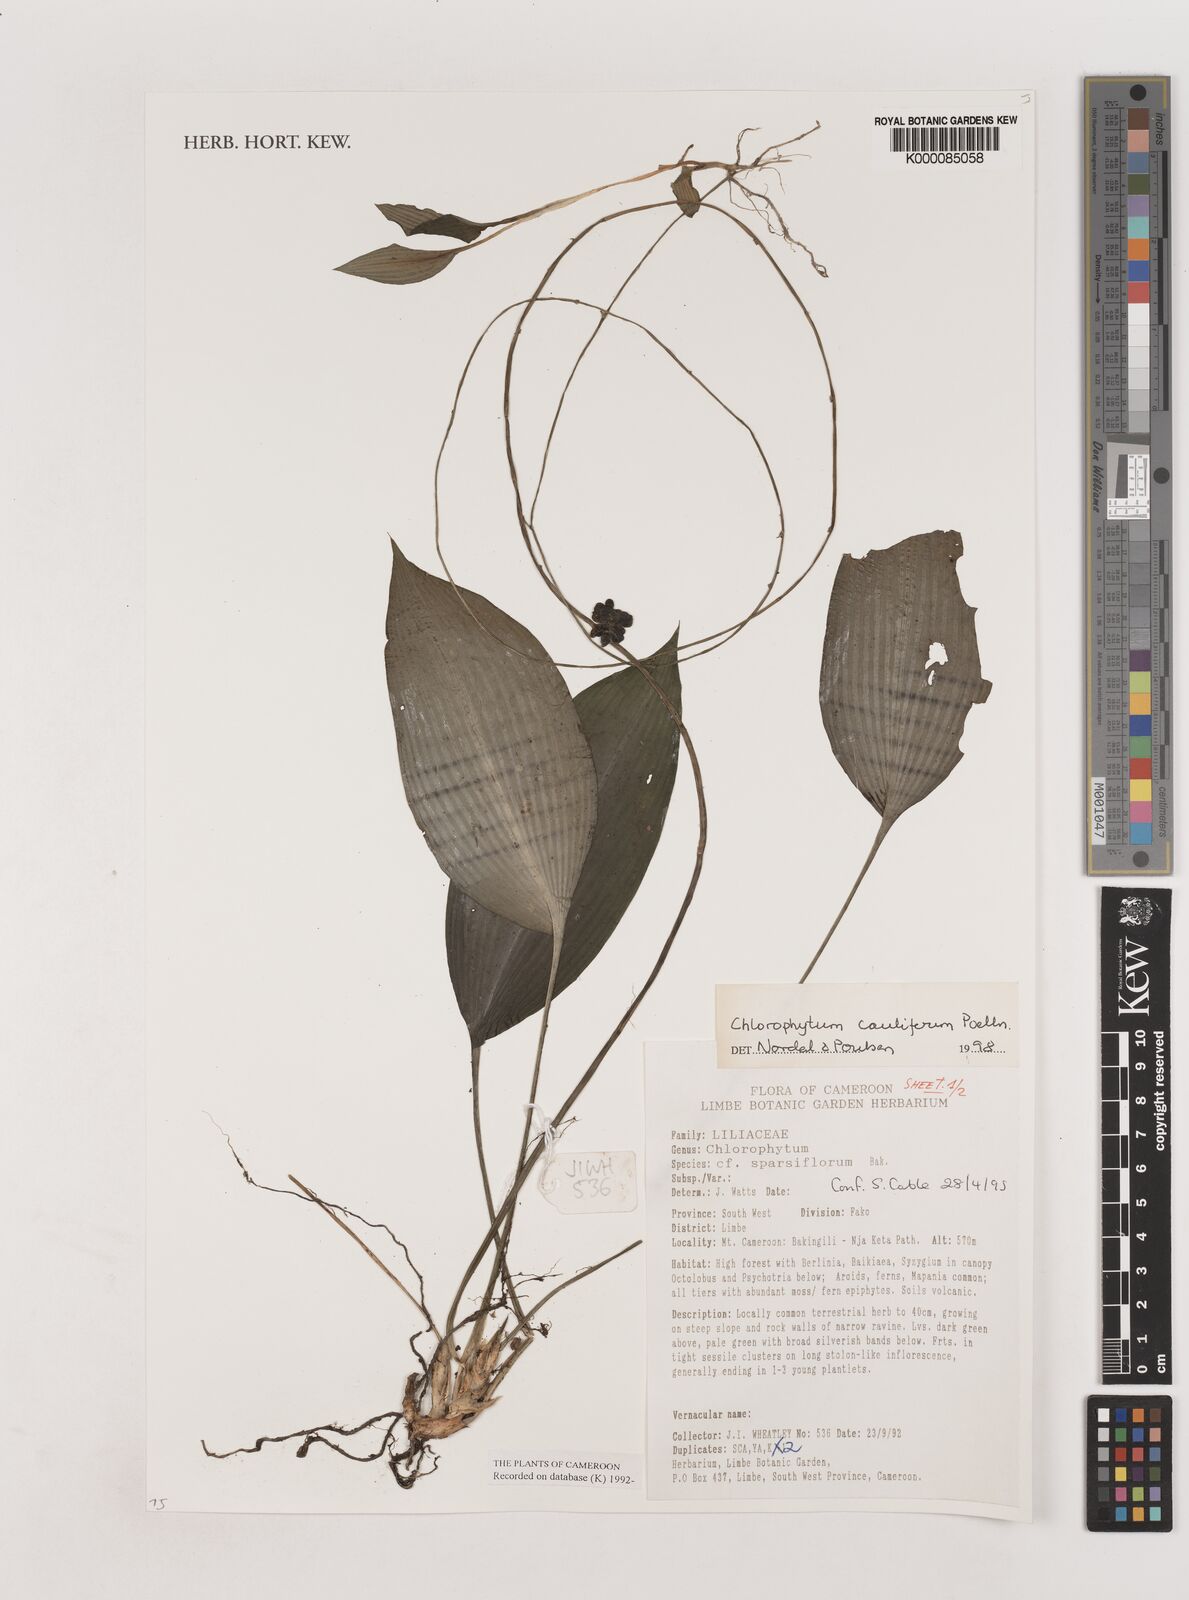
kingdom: Plantae
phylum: Tracheophyta
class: Liliopsida
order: Asparagales
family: Asparagaceae
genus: Chlorophytum
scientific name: Chlorophytum sparsiflorum
